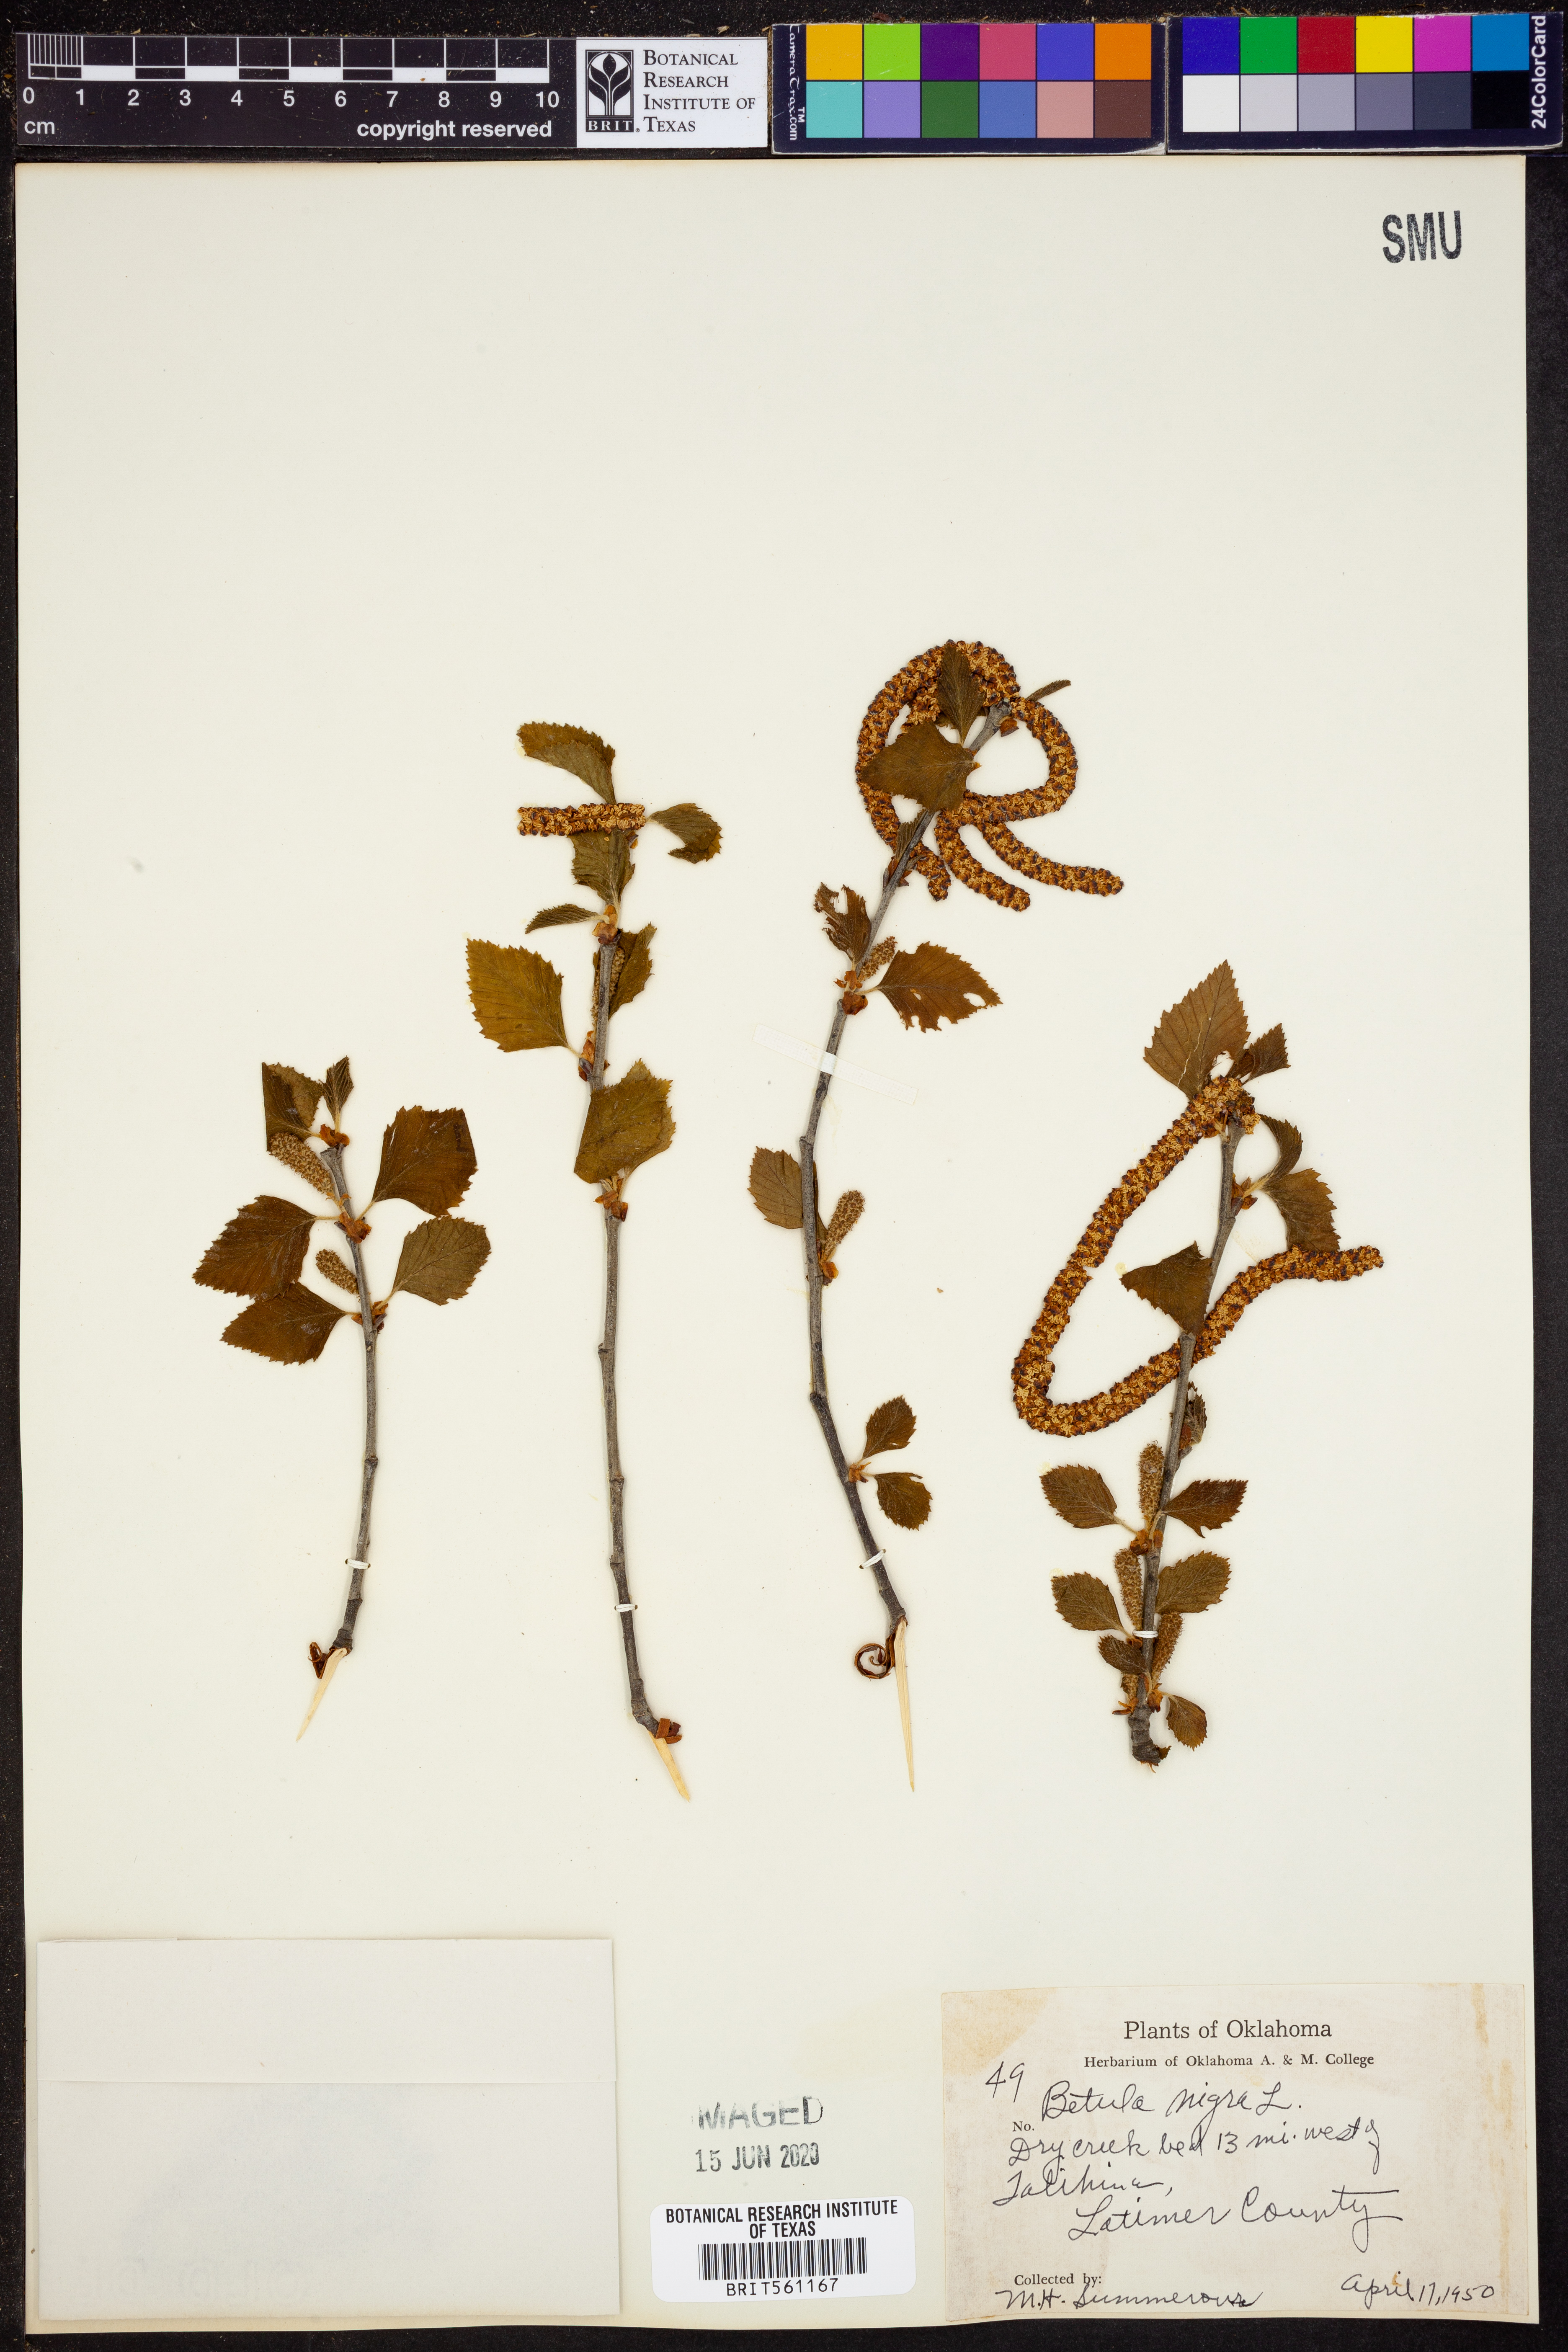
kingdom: Plantae
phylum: Tracheophyta
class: Magnoliopsida
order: Fagales
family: Betulaceae
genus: Betula
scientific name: Betula nigra
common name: Black birch
